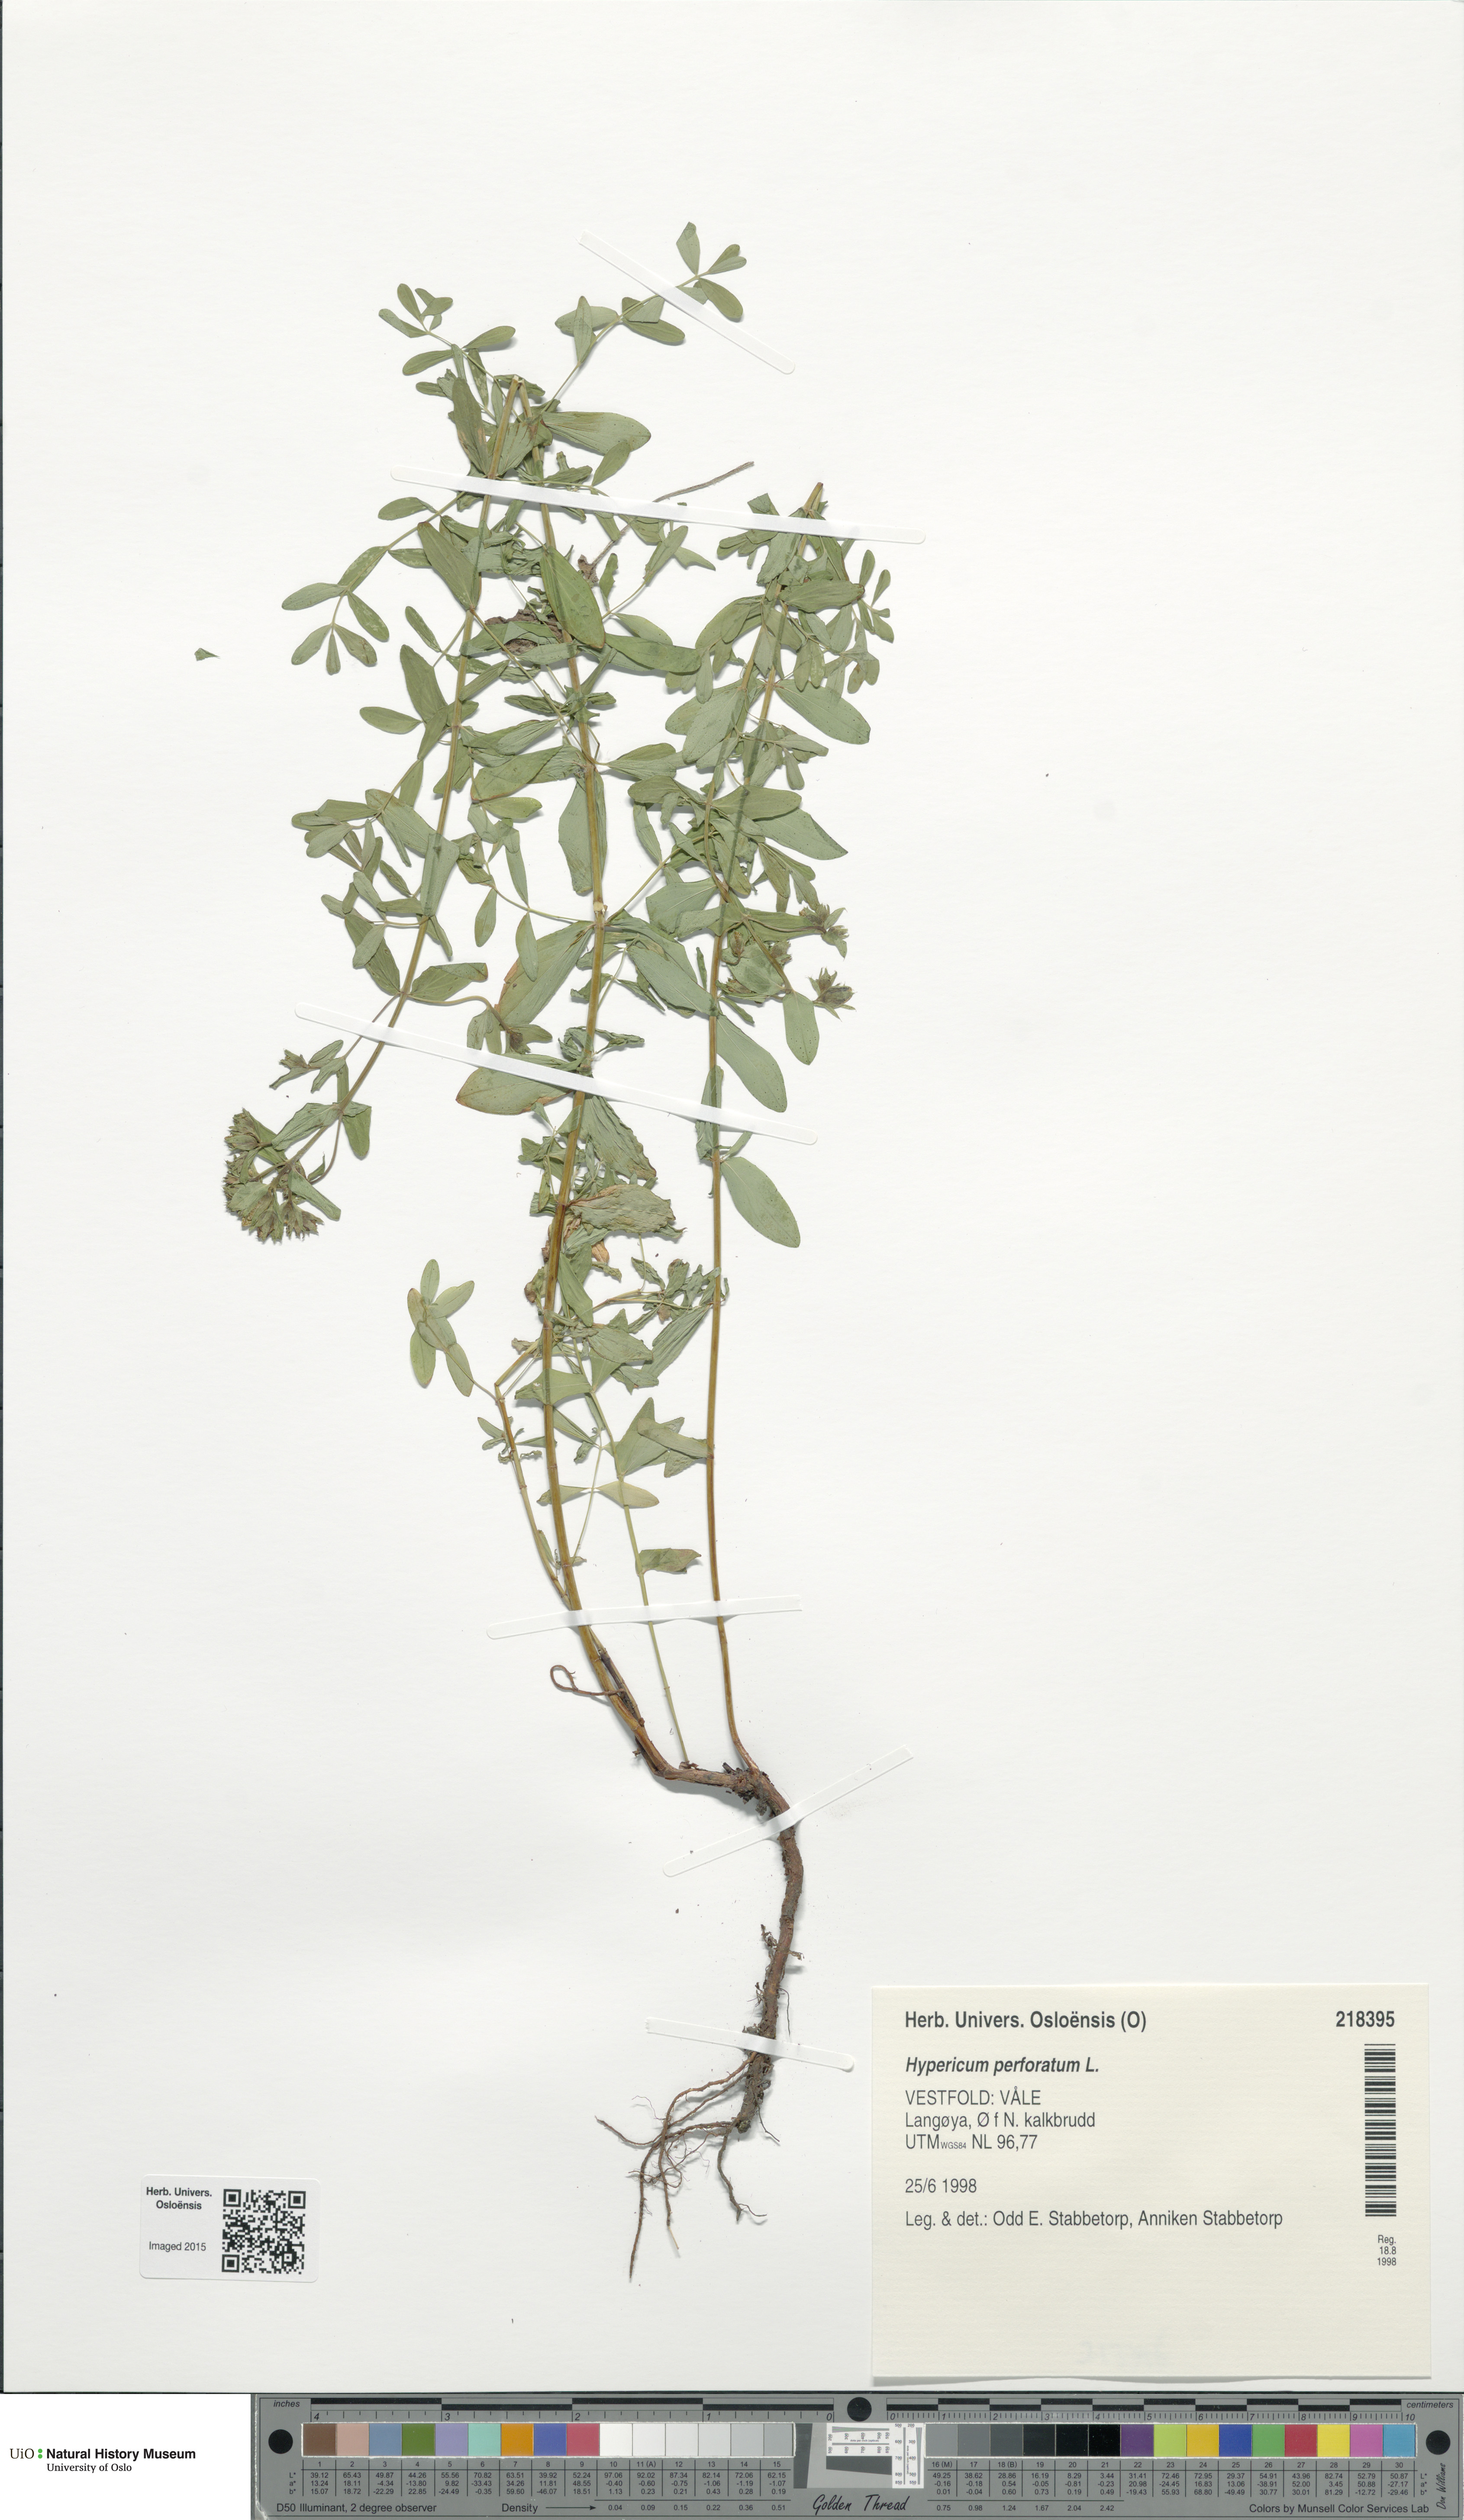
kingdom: Plantae
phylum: Tracheophyta
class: Magnoliopsida
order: Malpighiales
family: Hypericaceae
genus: Hypericum
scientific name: Hypericum perforatum
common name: Common st. johnswort
